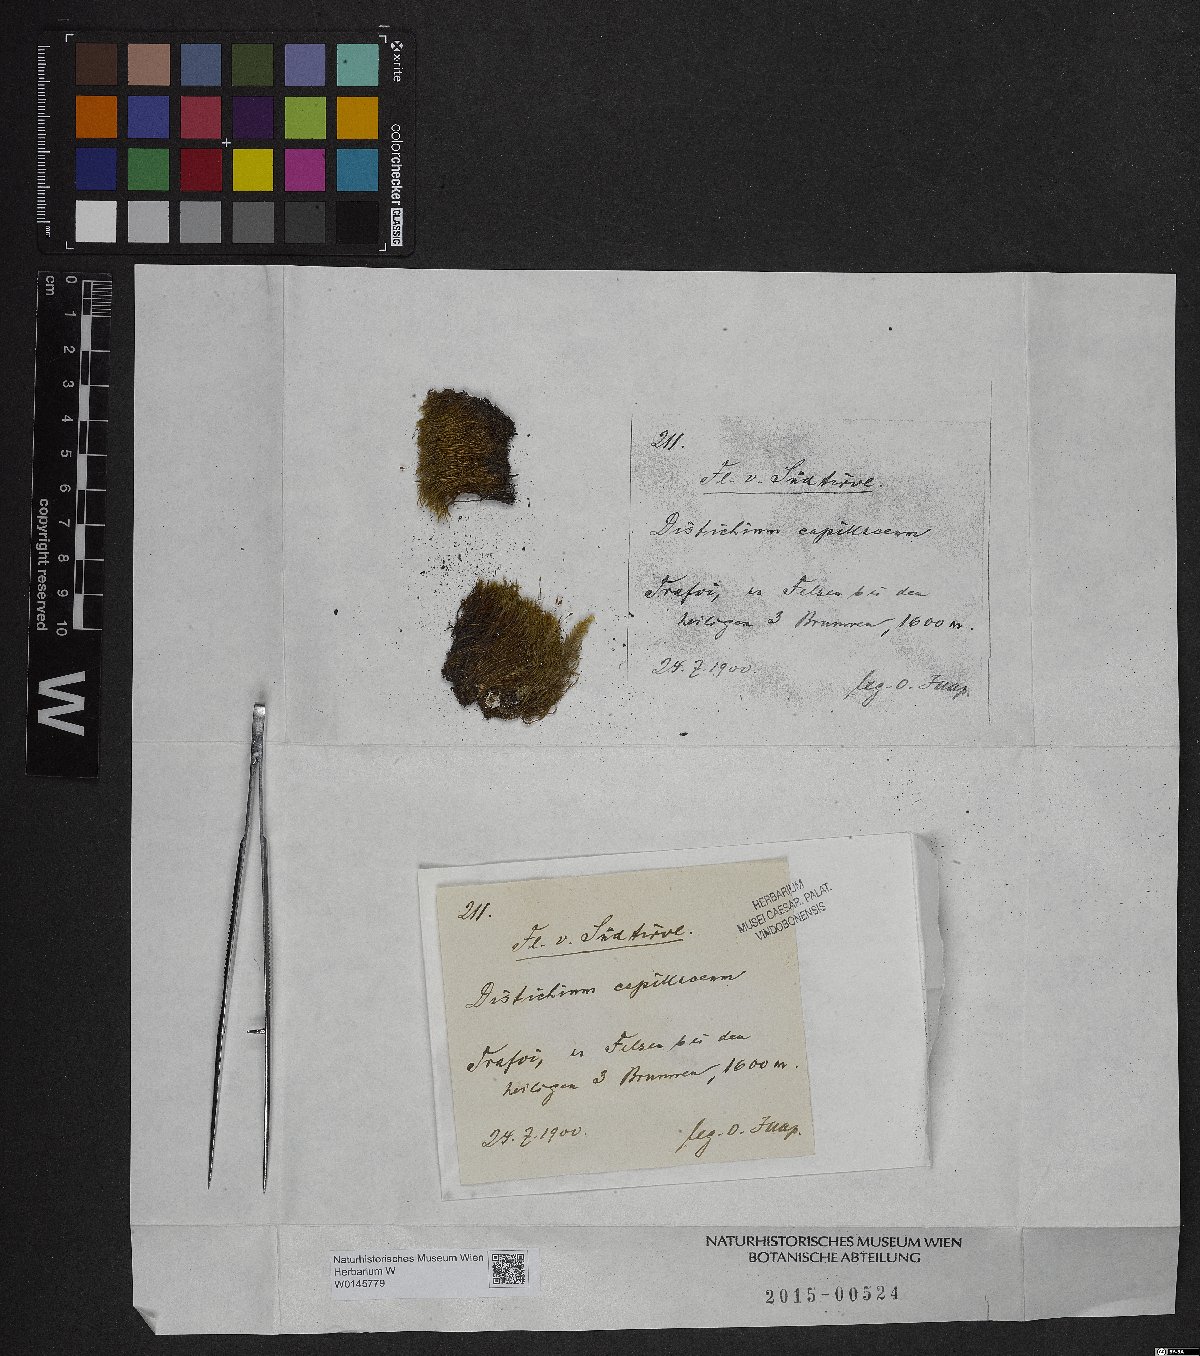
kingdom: Plantae
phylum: Bryophyta
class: Bryopsida
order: Scouleriales
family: Distichiaceae
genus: Distichium
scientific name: Distichium capillaceum
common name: Erect-fruited iris moss
